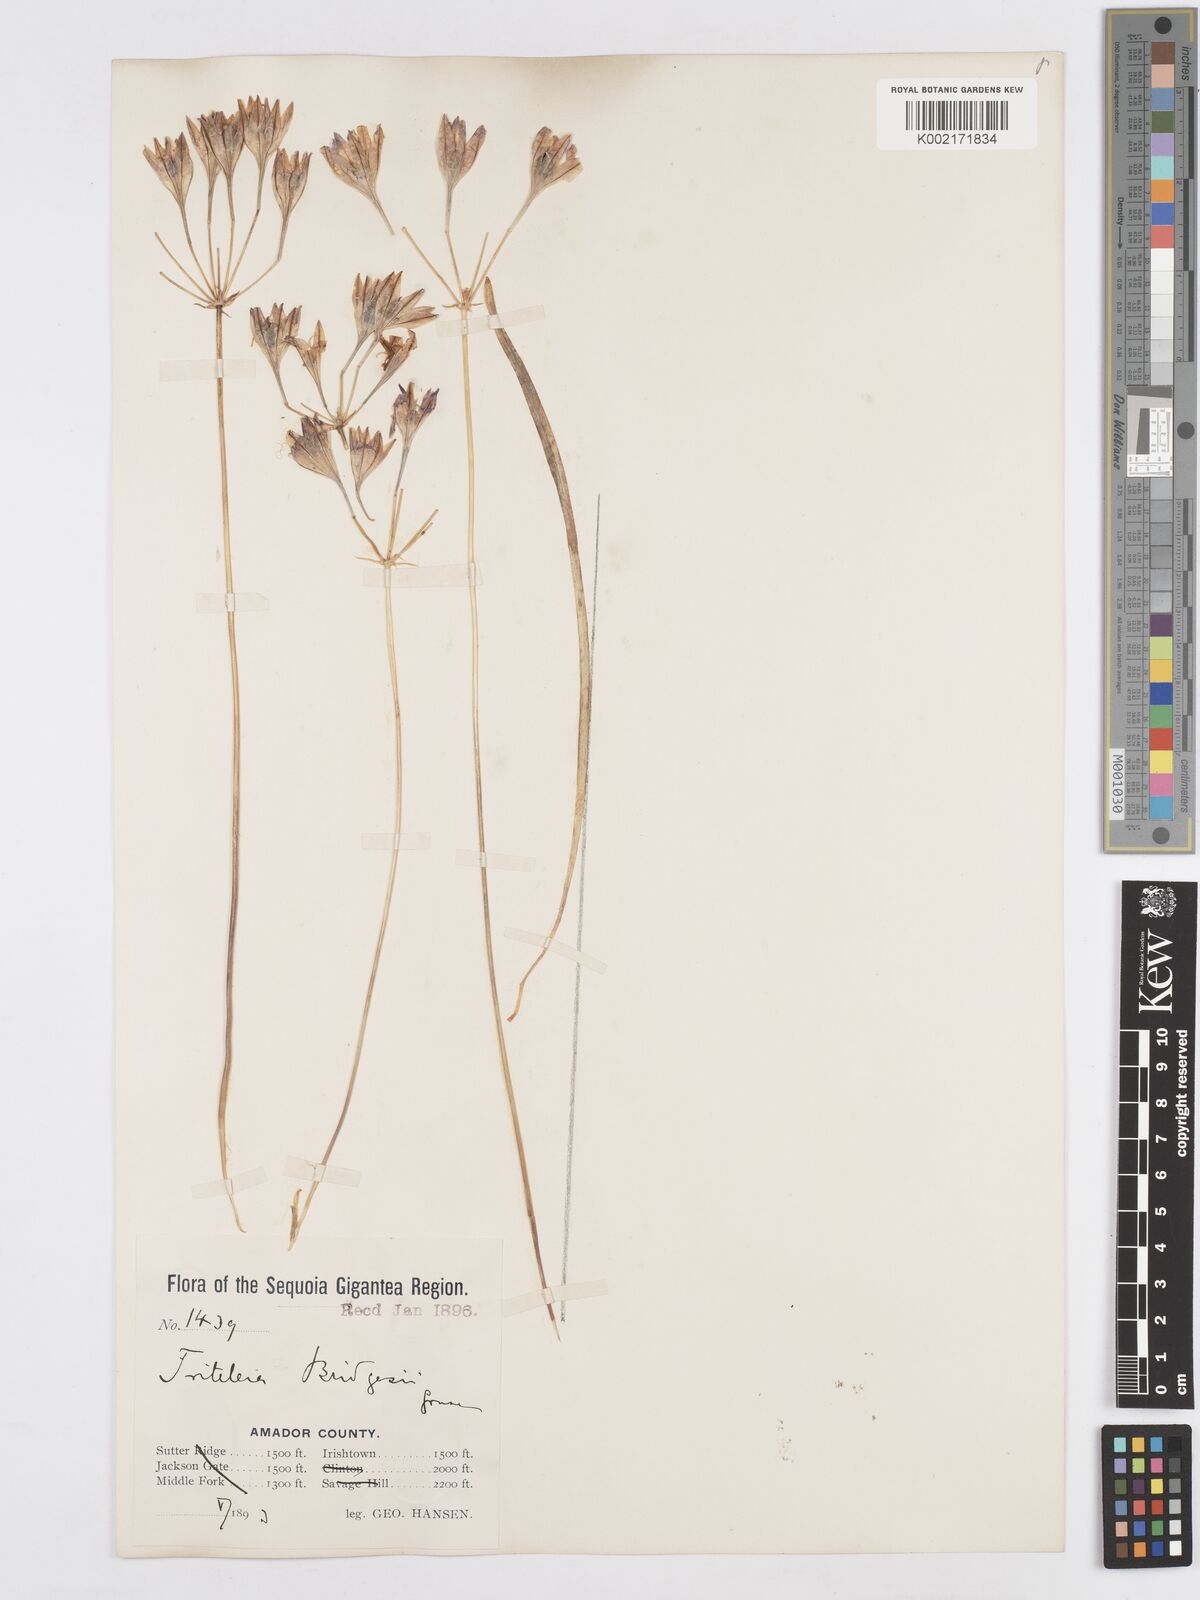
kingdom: Plantae
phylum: Tracheophyta
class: Liliopsida
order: Asparagales
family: Asparagaceae
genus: Triteleia
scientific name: Triteleia bridgesii
